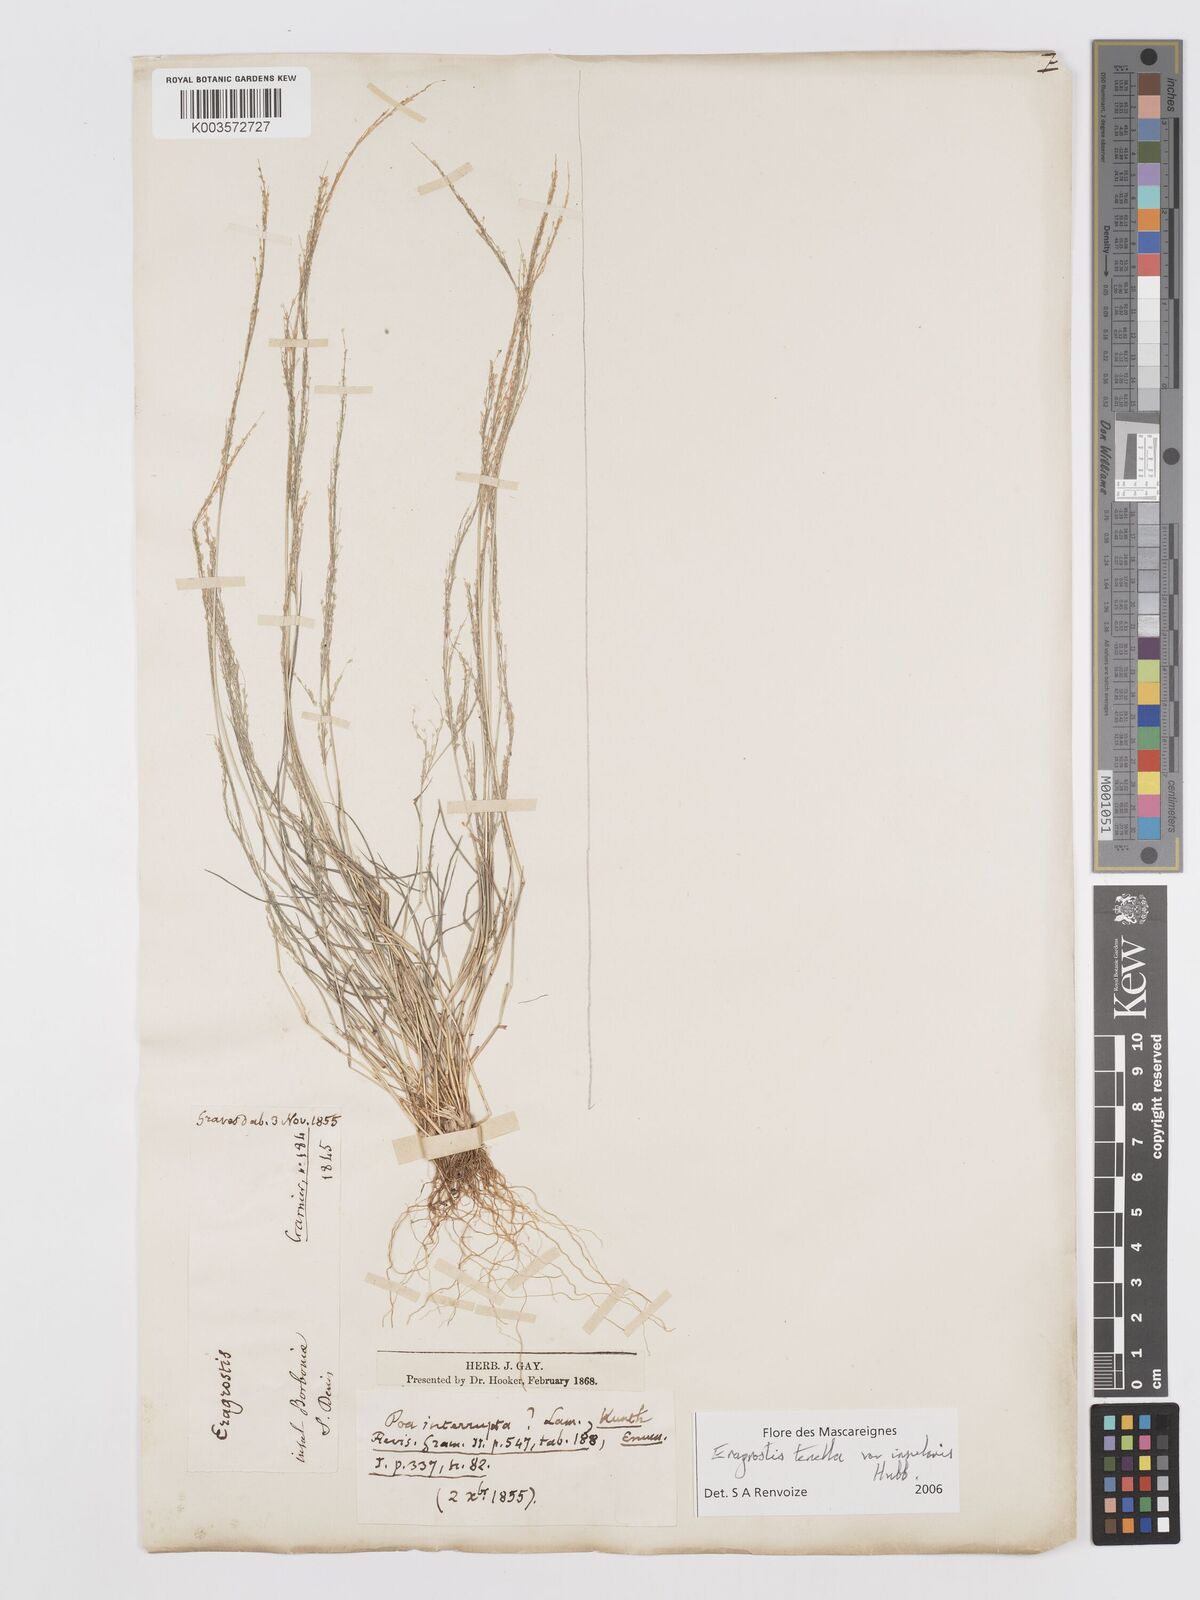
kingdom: Plantae
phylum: Tracheophyta
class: Liliopsida
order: Poales
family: Poaceae
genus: Eragrostis
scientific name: Eragrostis tenella
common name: Japanese lovegrass
